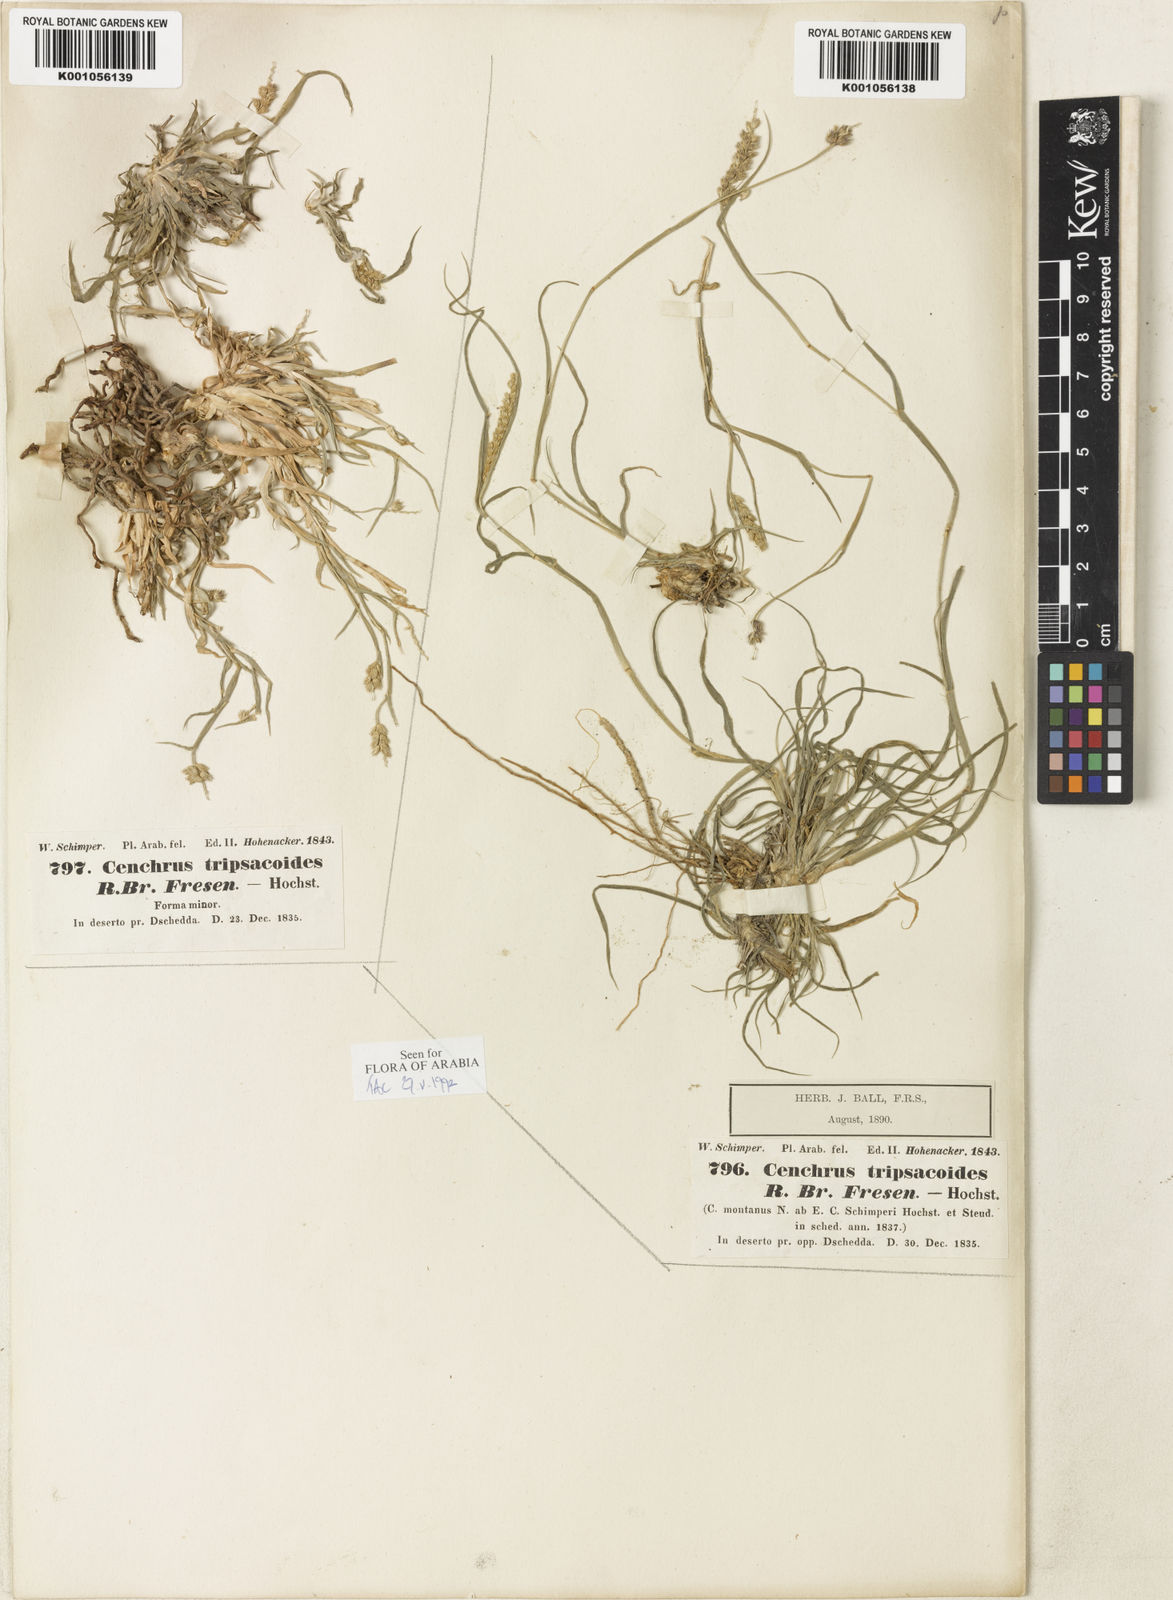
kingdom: Plantae
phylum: Tracheophyta
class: Liliopsida
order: Poales
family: Poaceae
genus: Cenchrus
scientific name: Cenchrus
